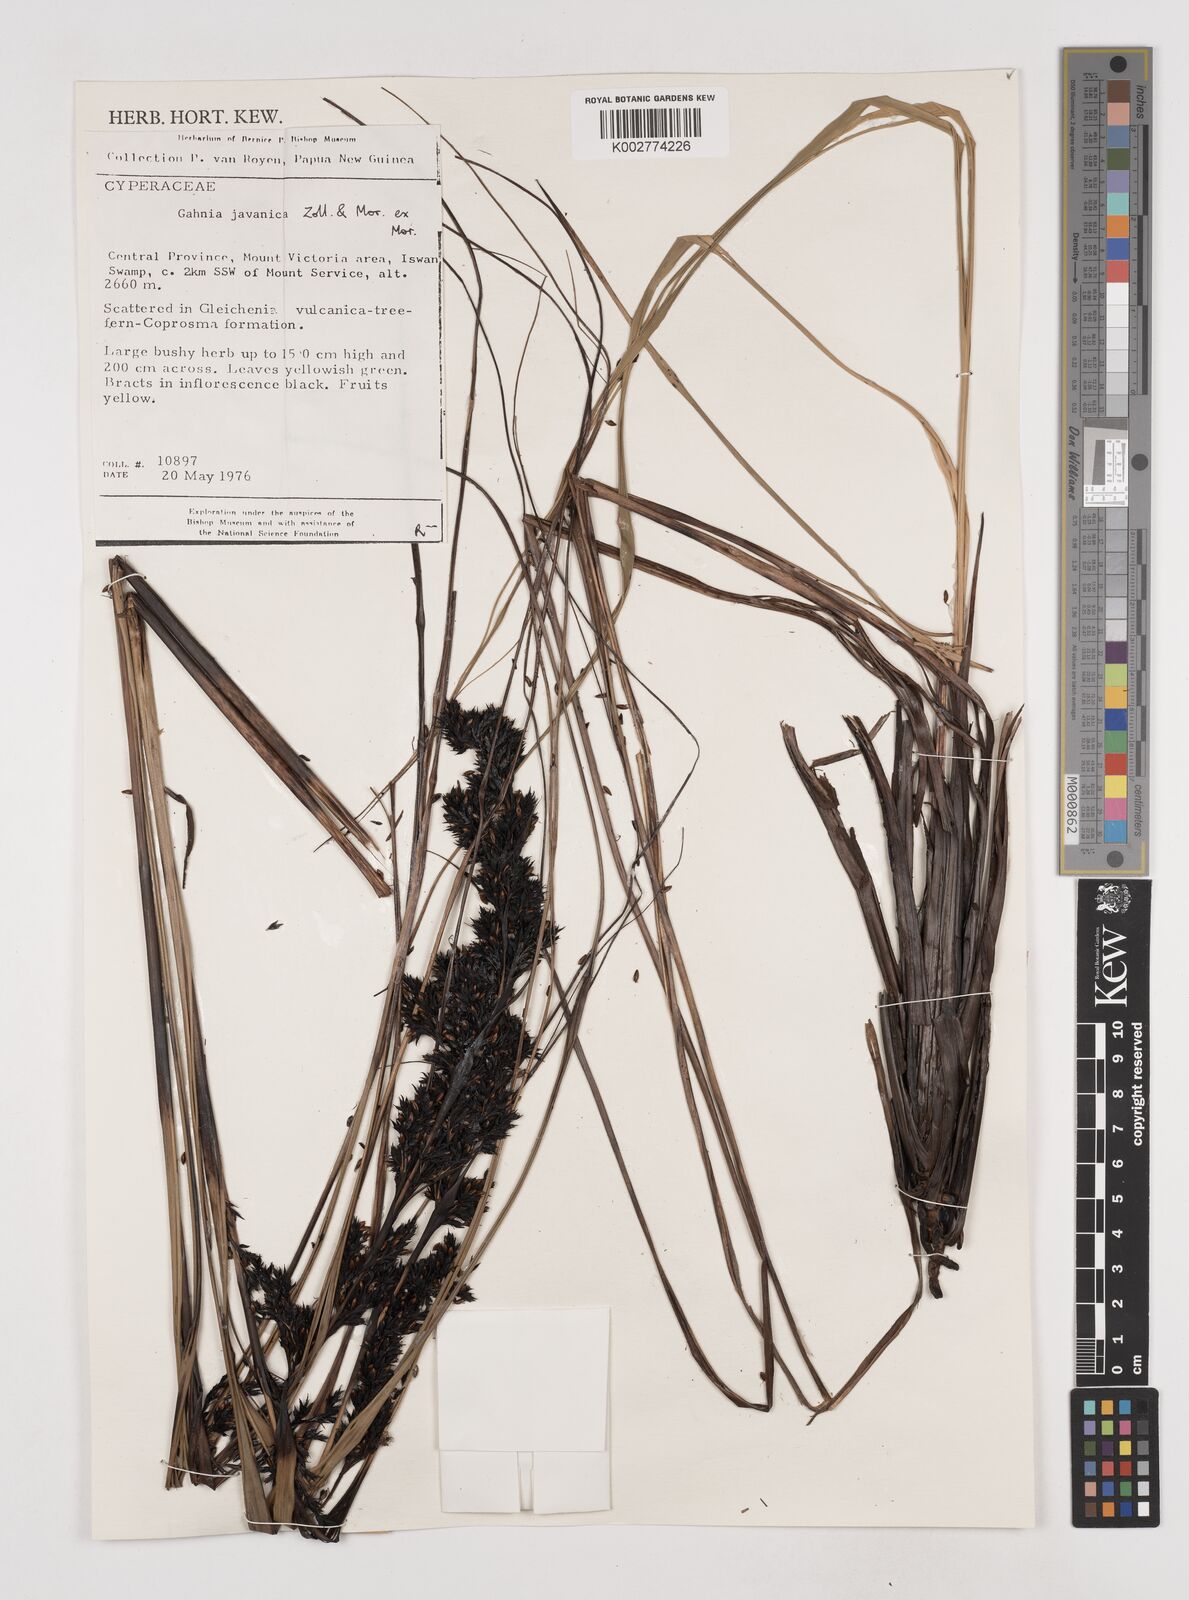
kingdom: Plantae
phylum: Tracheophyta
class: Liliopsida
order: Poales
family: Cyperaceae
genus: Gahnia
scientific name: Gahnia javanica
